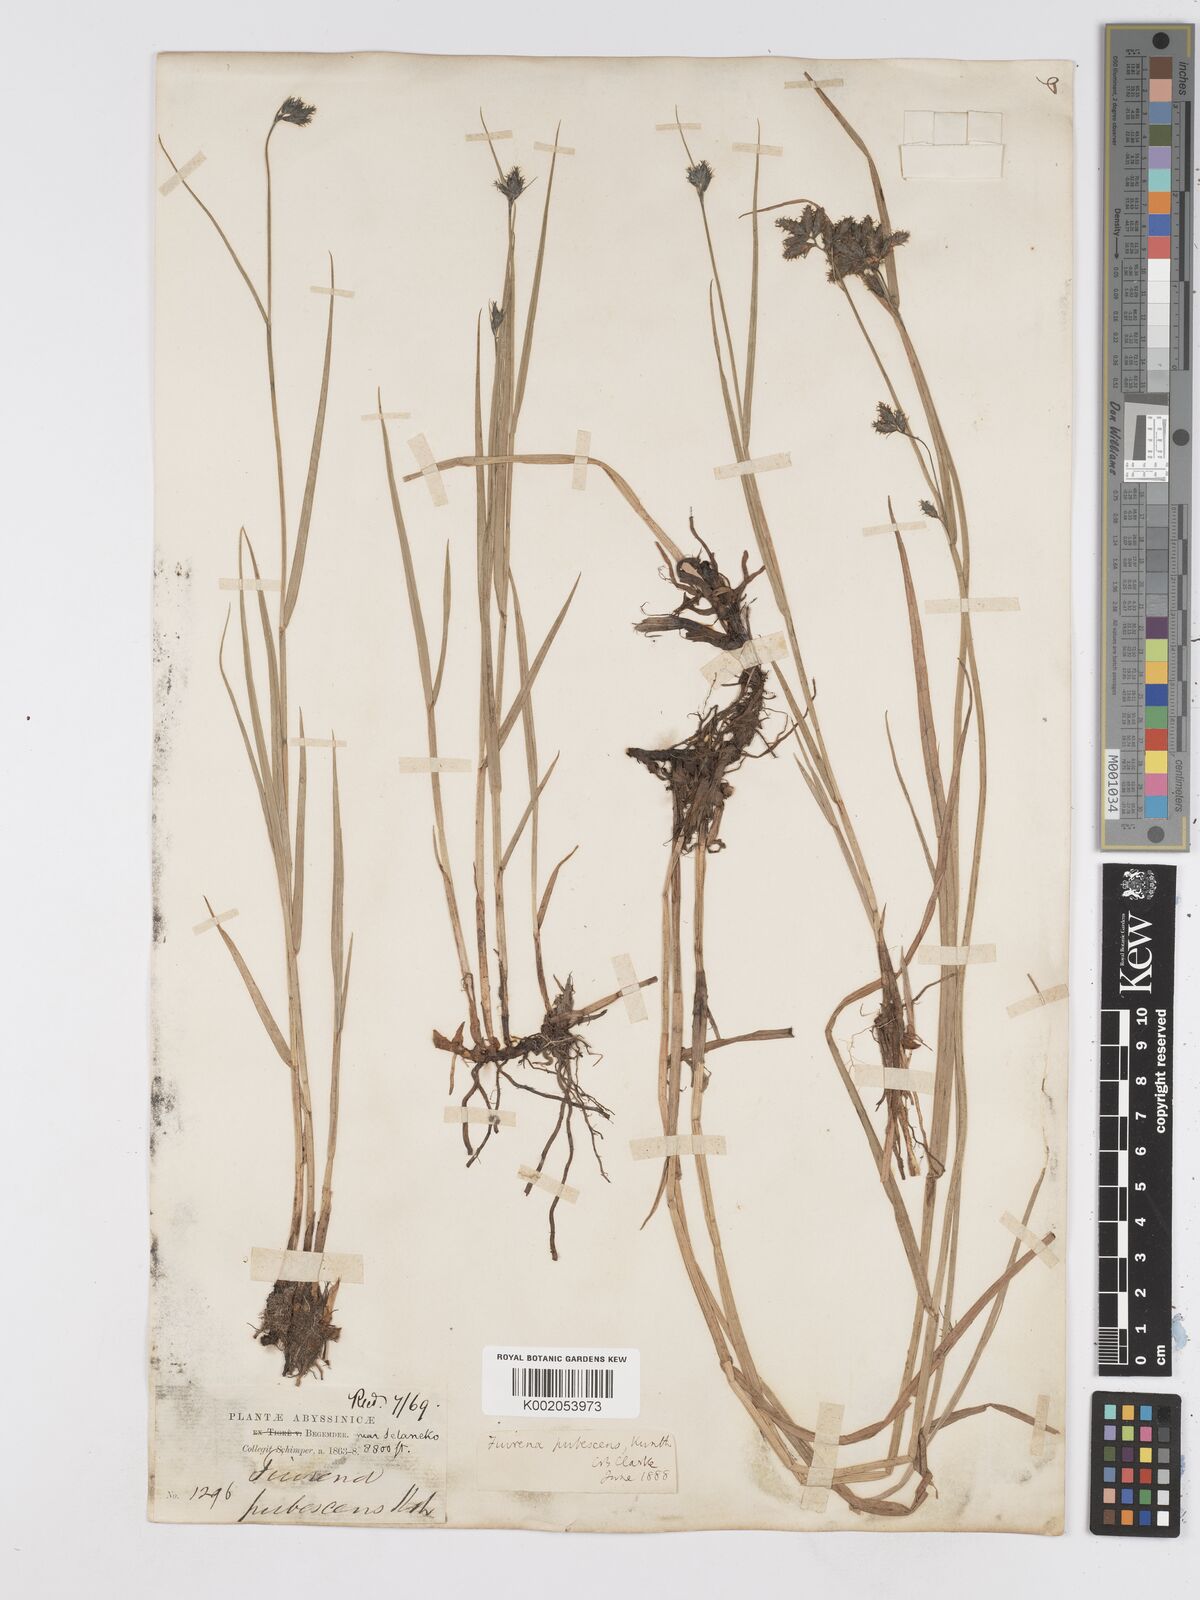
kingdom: Plantae
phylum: Tracheophyta
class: Liliopsida
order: Poales
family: Cyperaceae
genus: Fuirena
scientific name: Fuirena pachyrrhiza
